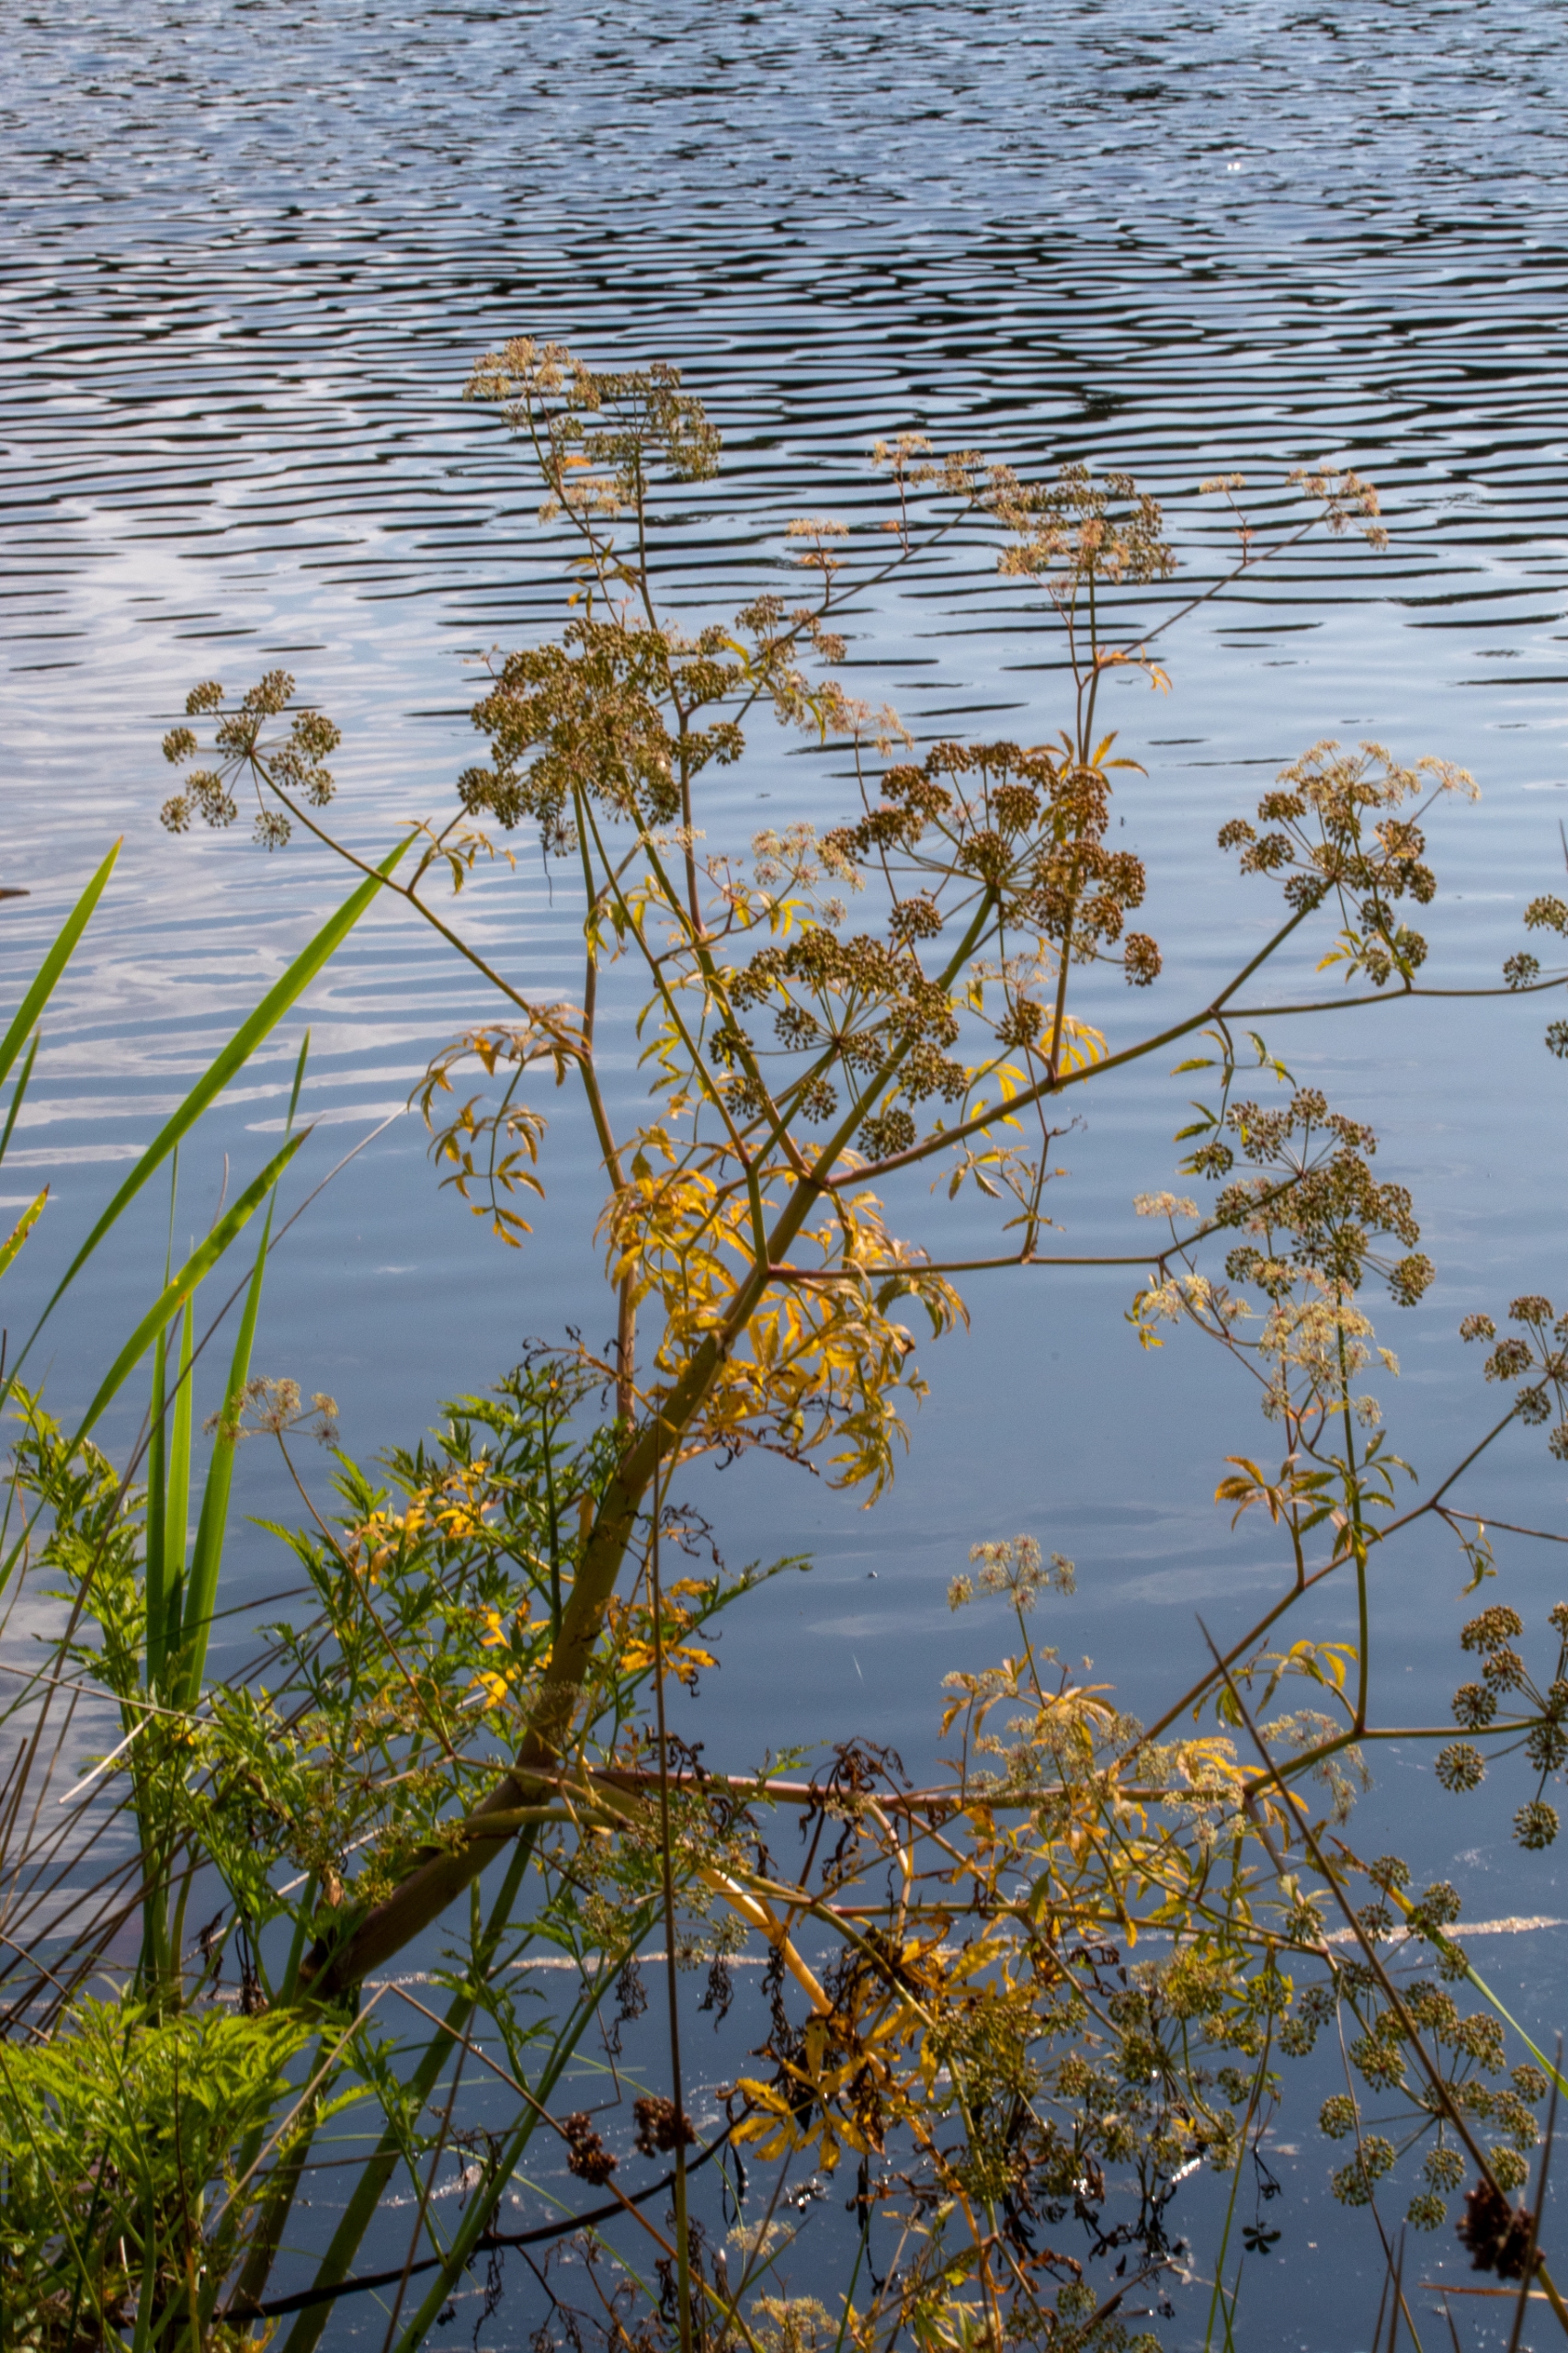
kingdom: Plantae
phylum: Tracheophyta
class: Magnoliopsida
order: Apiales
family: Apiaceae
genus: Cicuta
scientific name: Cicuta virosa
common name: Gifttyde
